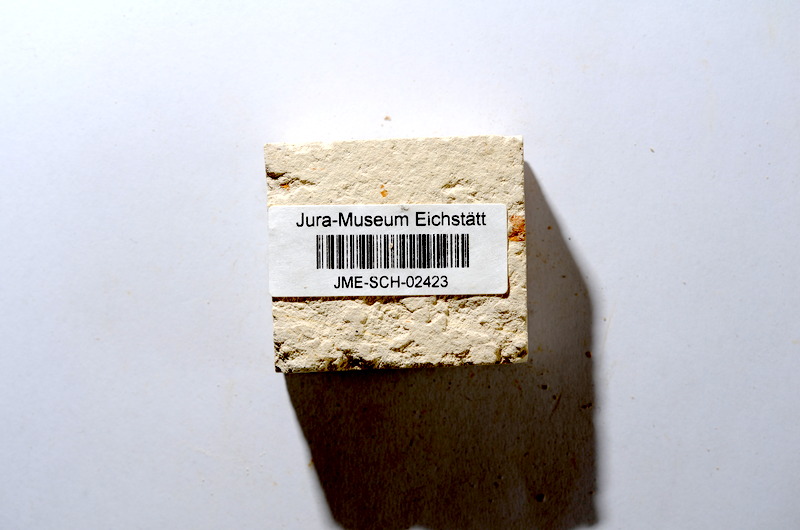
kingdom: Animalia
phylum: Chordata
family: Ascalaboidae
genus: Tharsis
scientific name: Tharsis dubius
